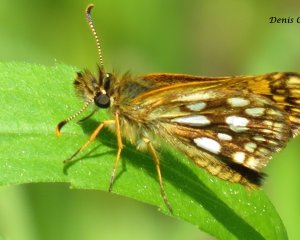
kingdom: Animalia
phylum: Arthropoda
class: Insecta
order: Lepidoptera
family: Hesperiidae
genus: Carterocephalus
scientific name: Carterocephalus palaemon
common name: Chequered Skipper
